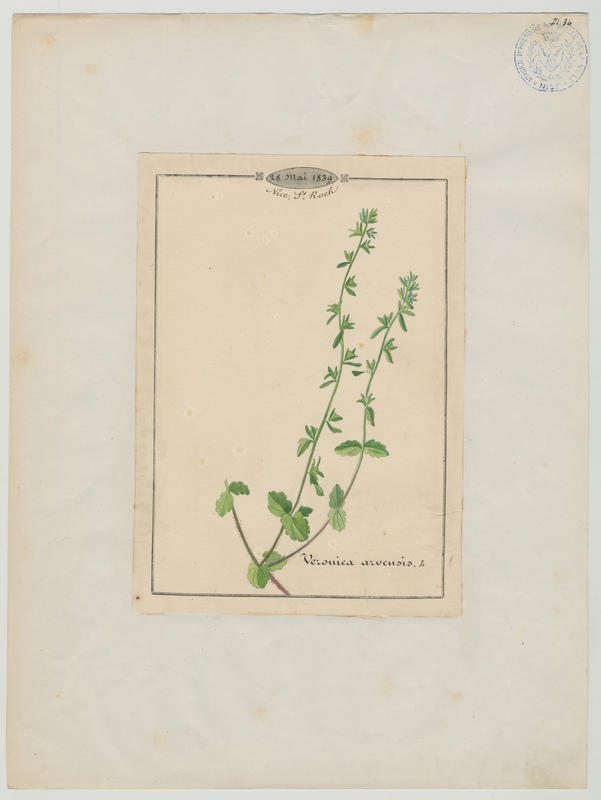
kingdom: Plantae
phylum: Tracheophyta
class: Magnoliopsida
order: Lamiales
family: Plantaginaceae
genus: Veronica
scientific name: Veronica arvensis
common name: Corn speedwell
